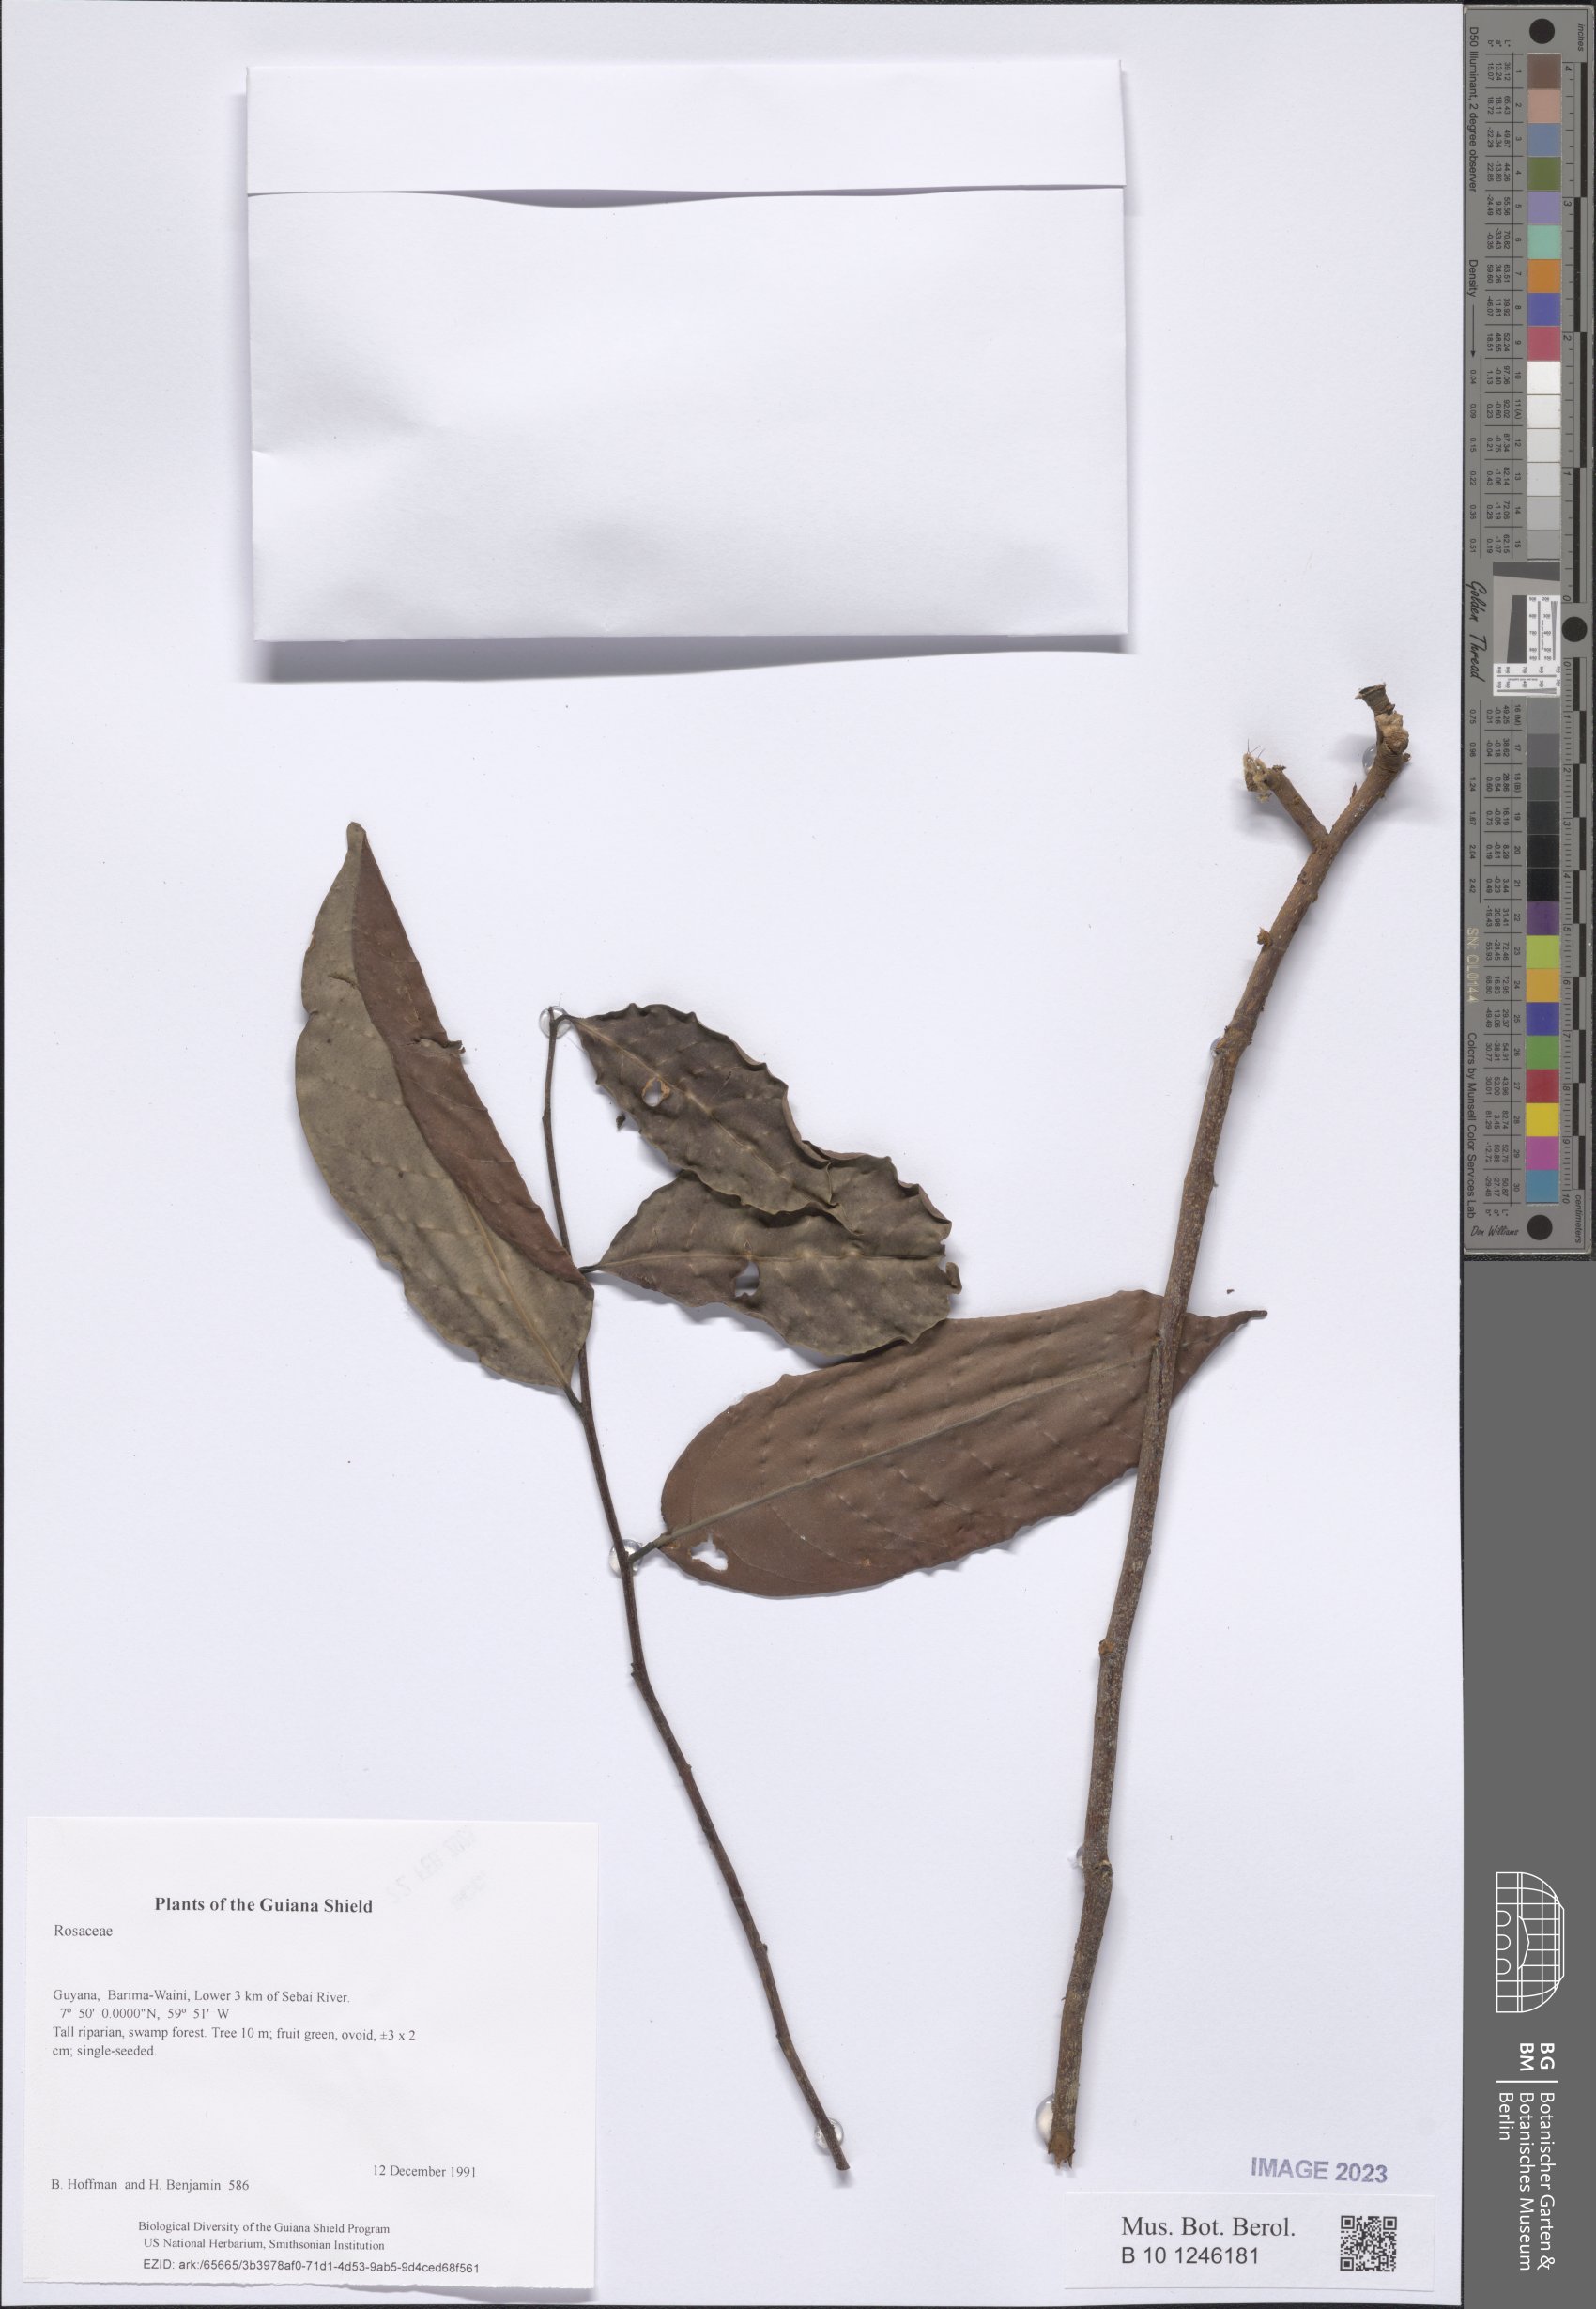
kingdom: Plantae
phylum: Tracheophyta
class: Magnoliopsida
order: Malpighiales
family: Chrysobalanaceae
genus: Licania
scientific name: Licania
